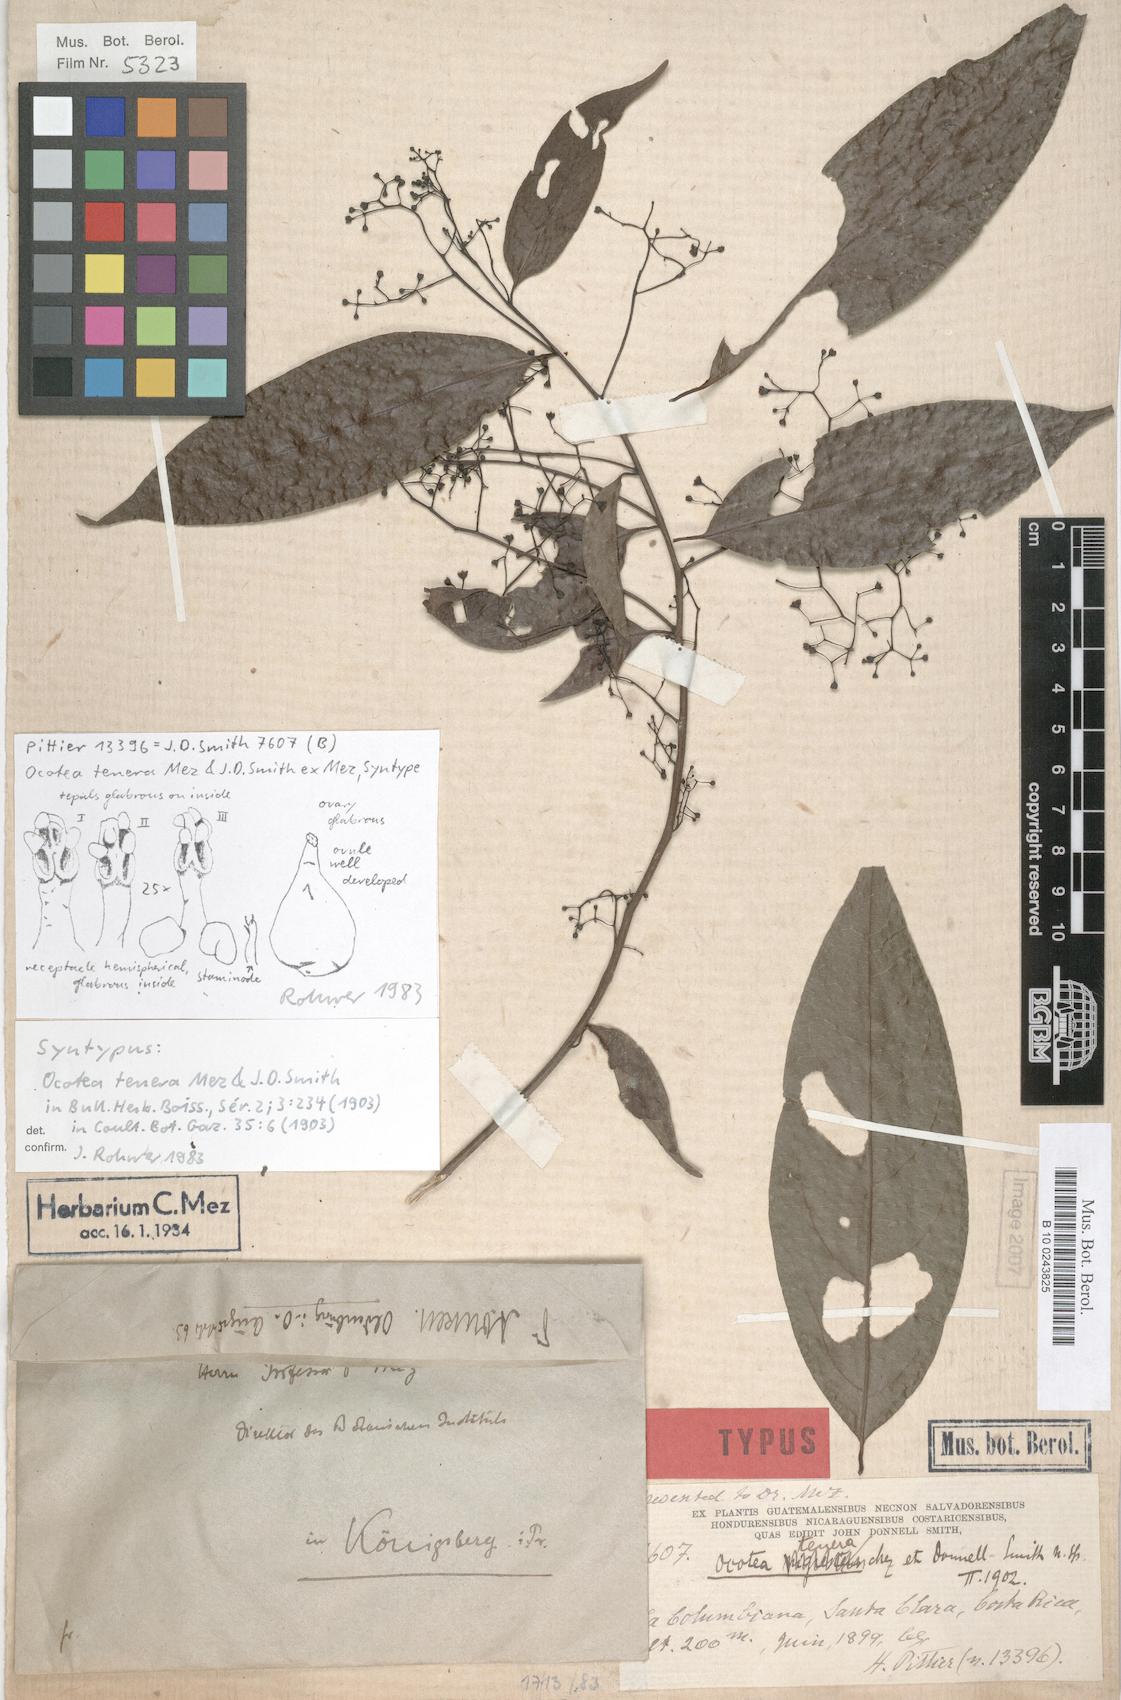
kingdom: Plantae
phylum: Tracheophyta
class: Magnoliopsida
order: Laurales
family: Lauraceae
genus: Ocotea
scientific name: Ocotea tenera
